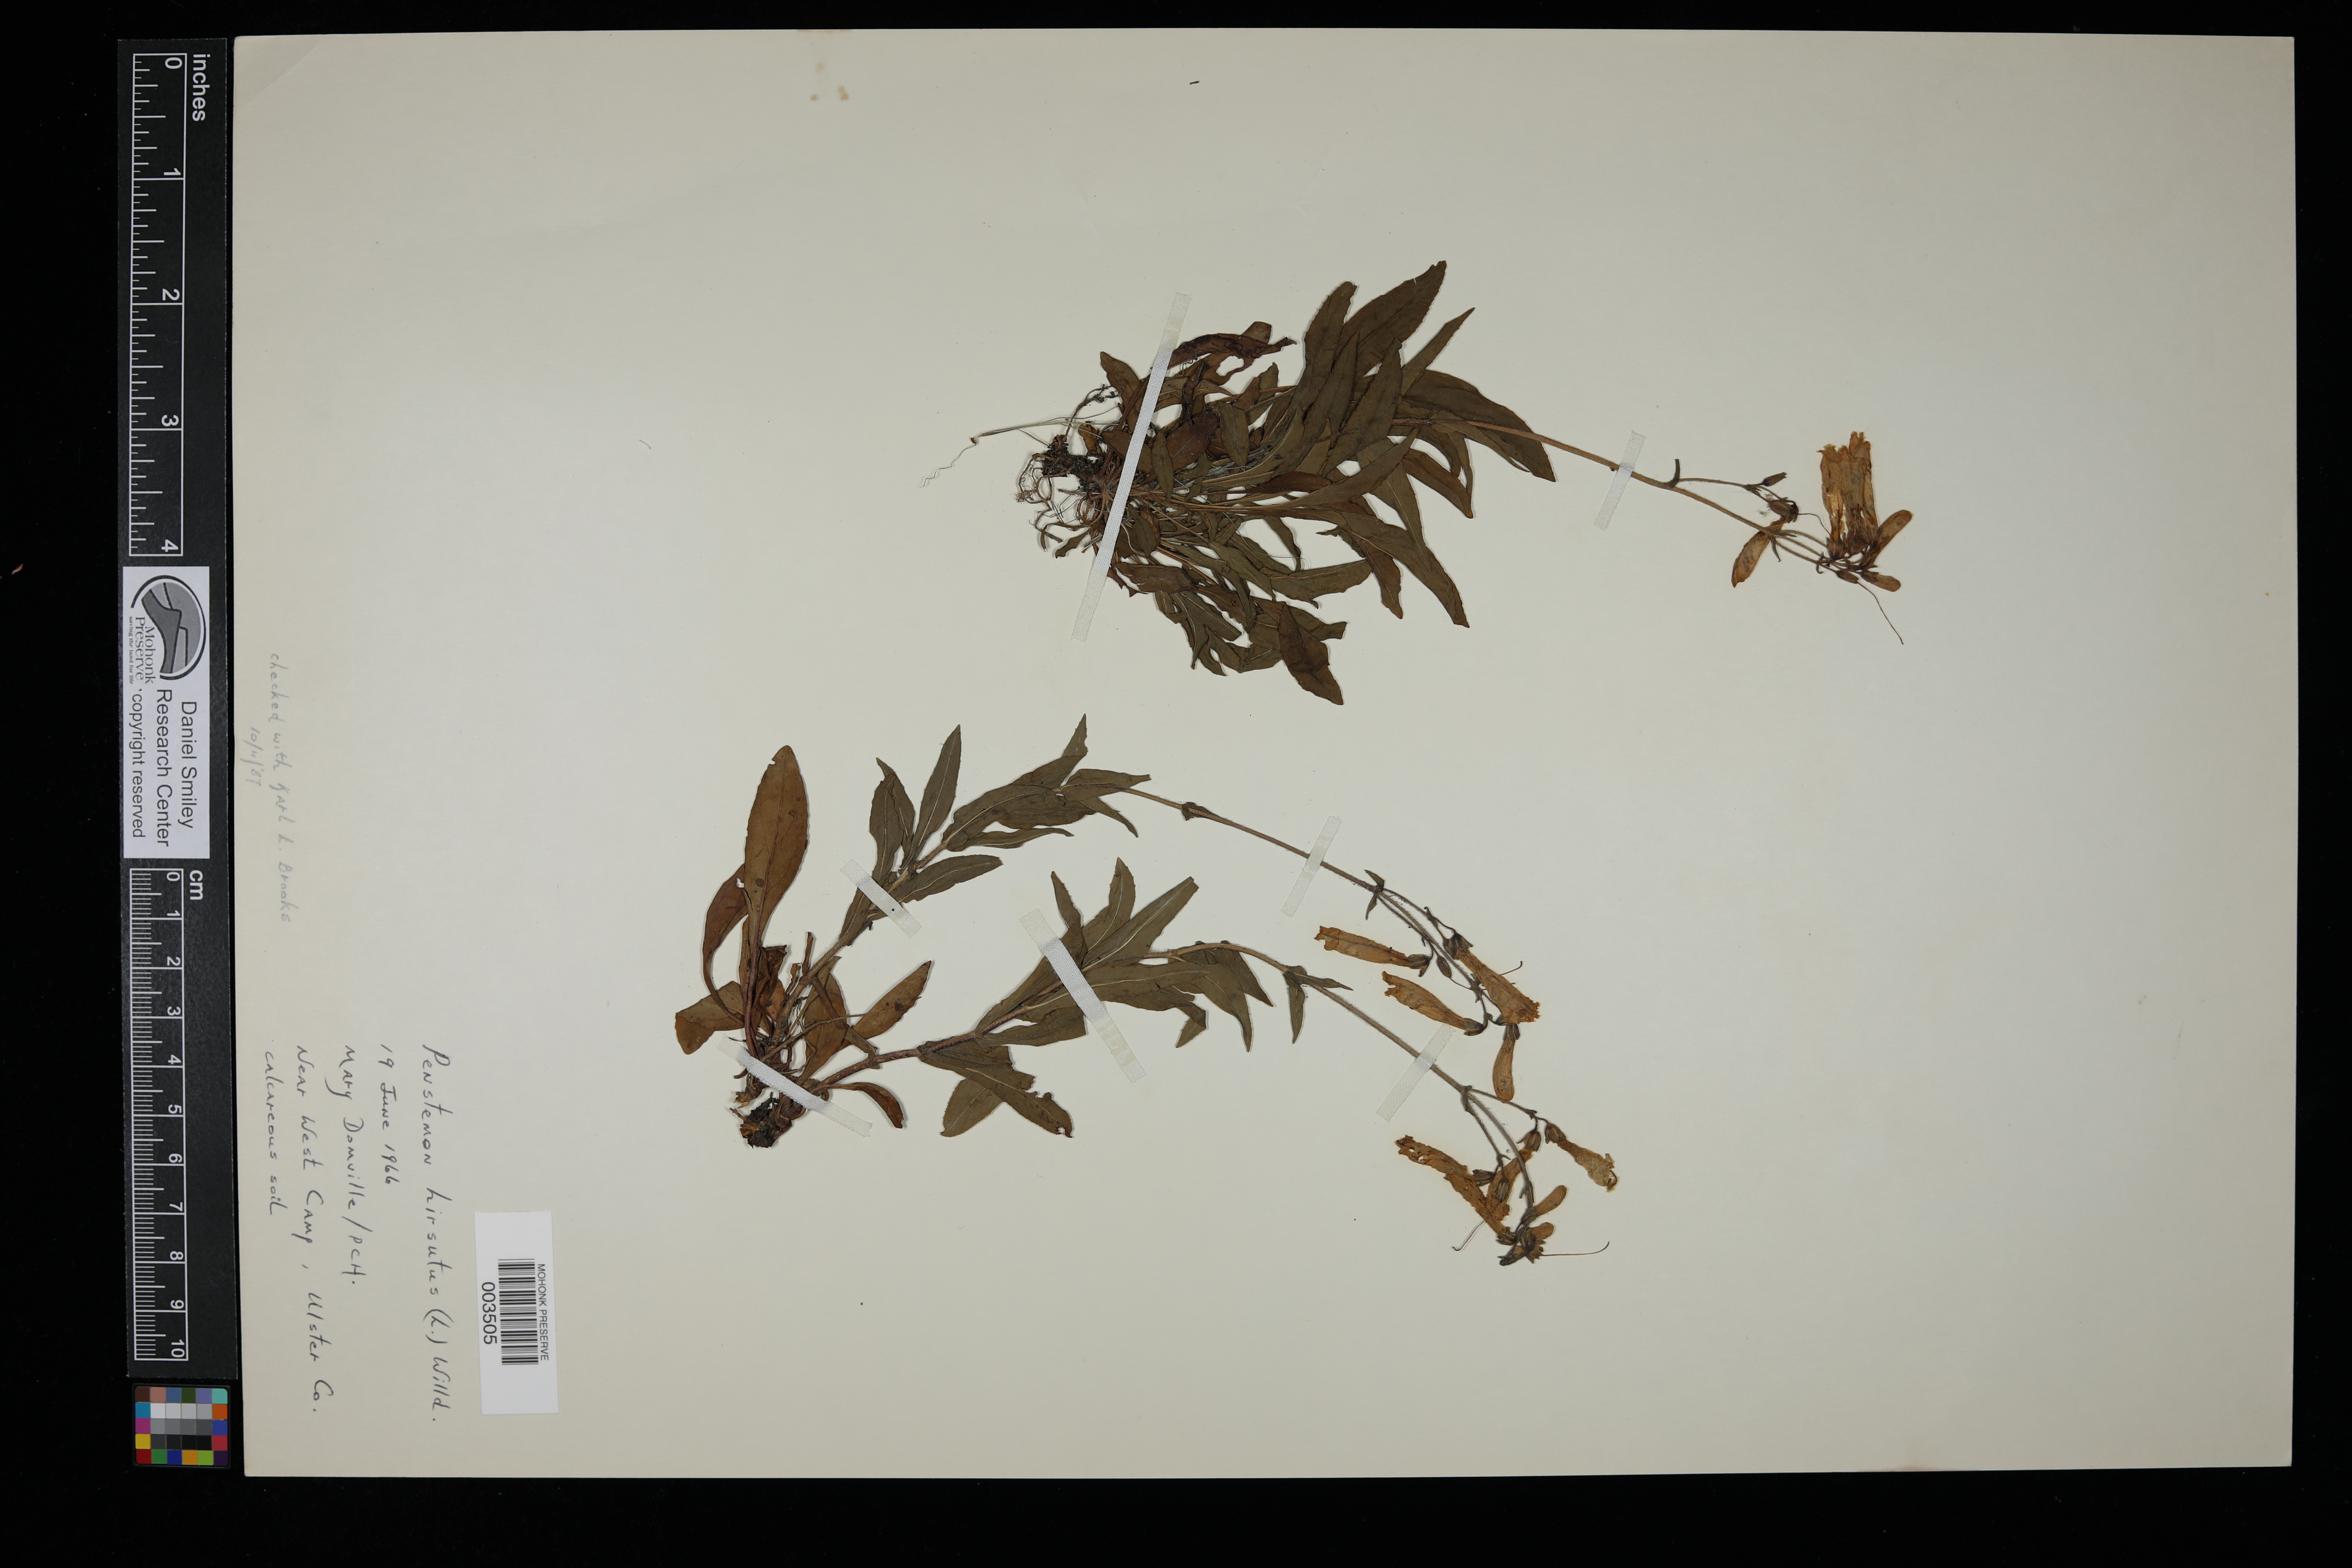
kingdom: Plantae
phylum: Tracheophyta
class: Magnoliopsida
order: Lamiales
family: Plantaginaceae
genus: Penstemon
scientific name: Penstemon hirsutus
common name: Hairy beardtongue
